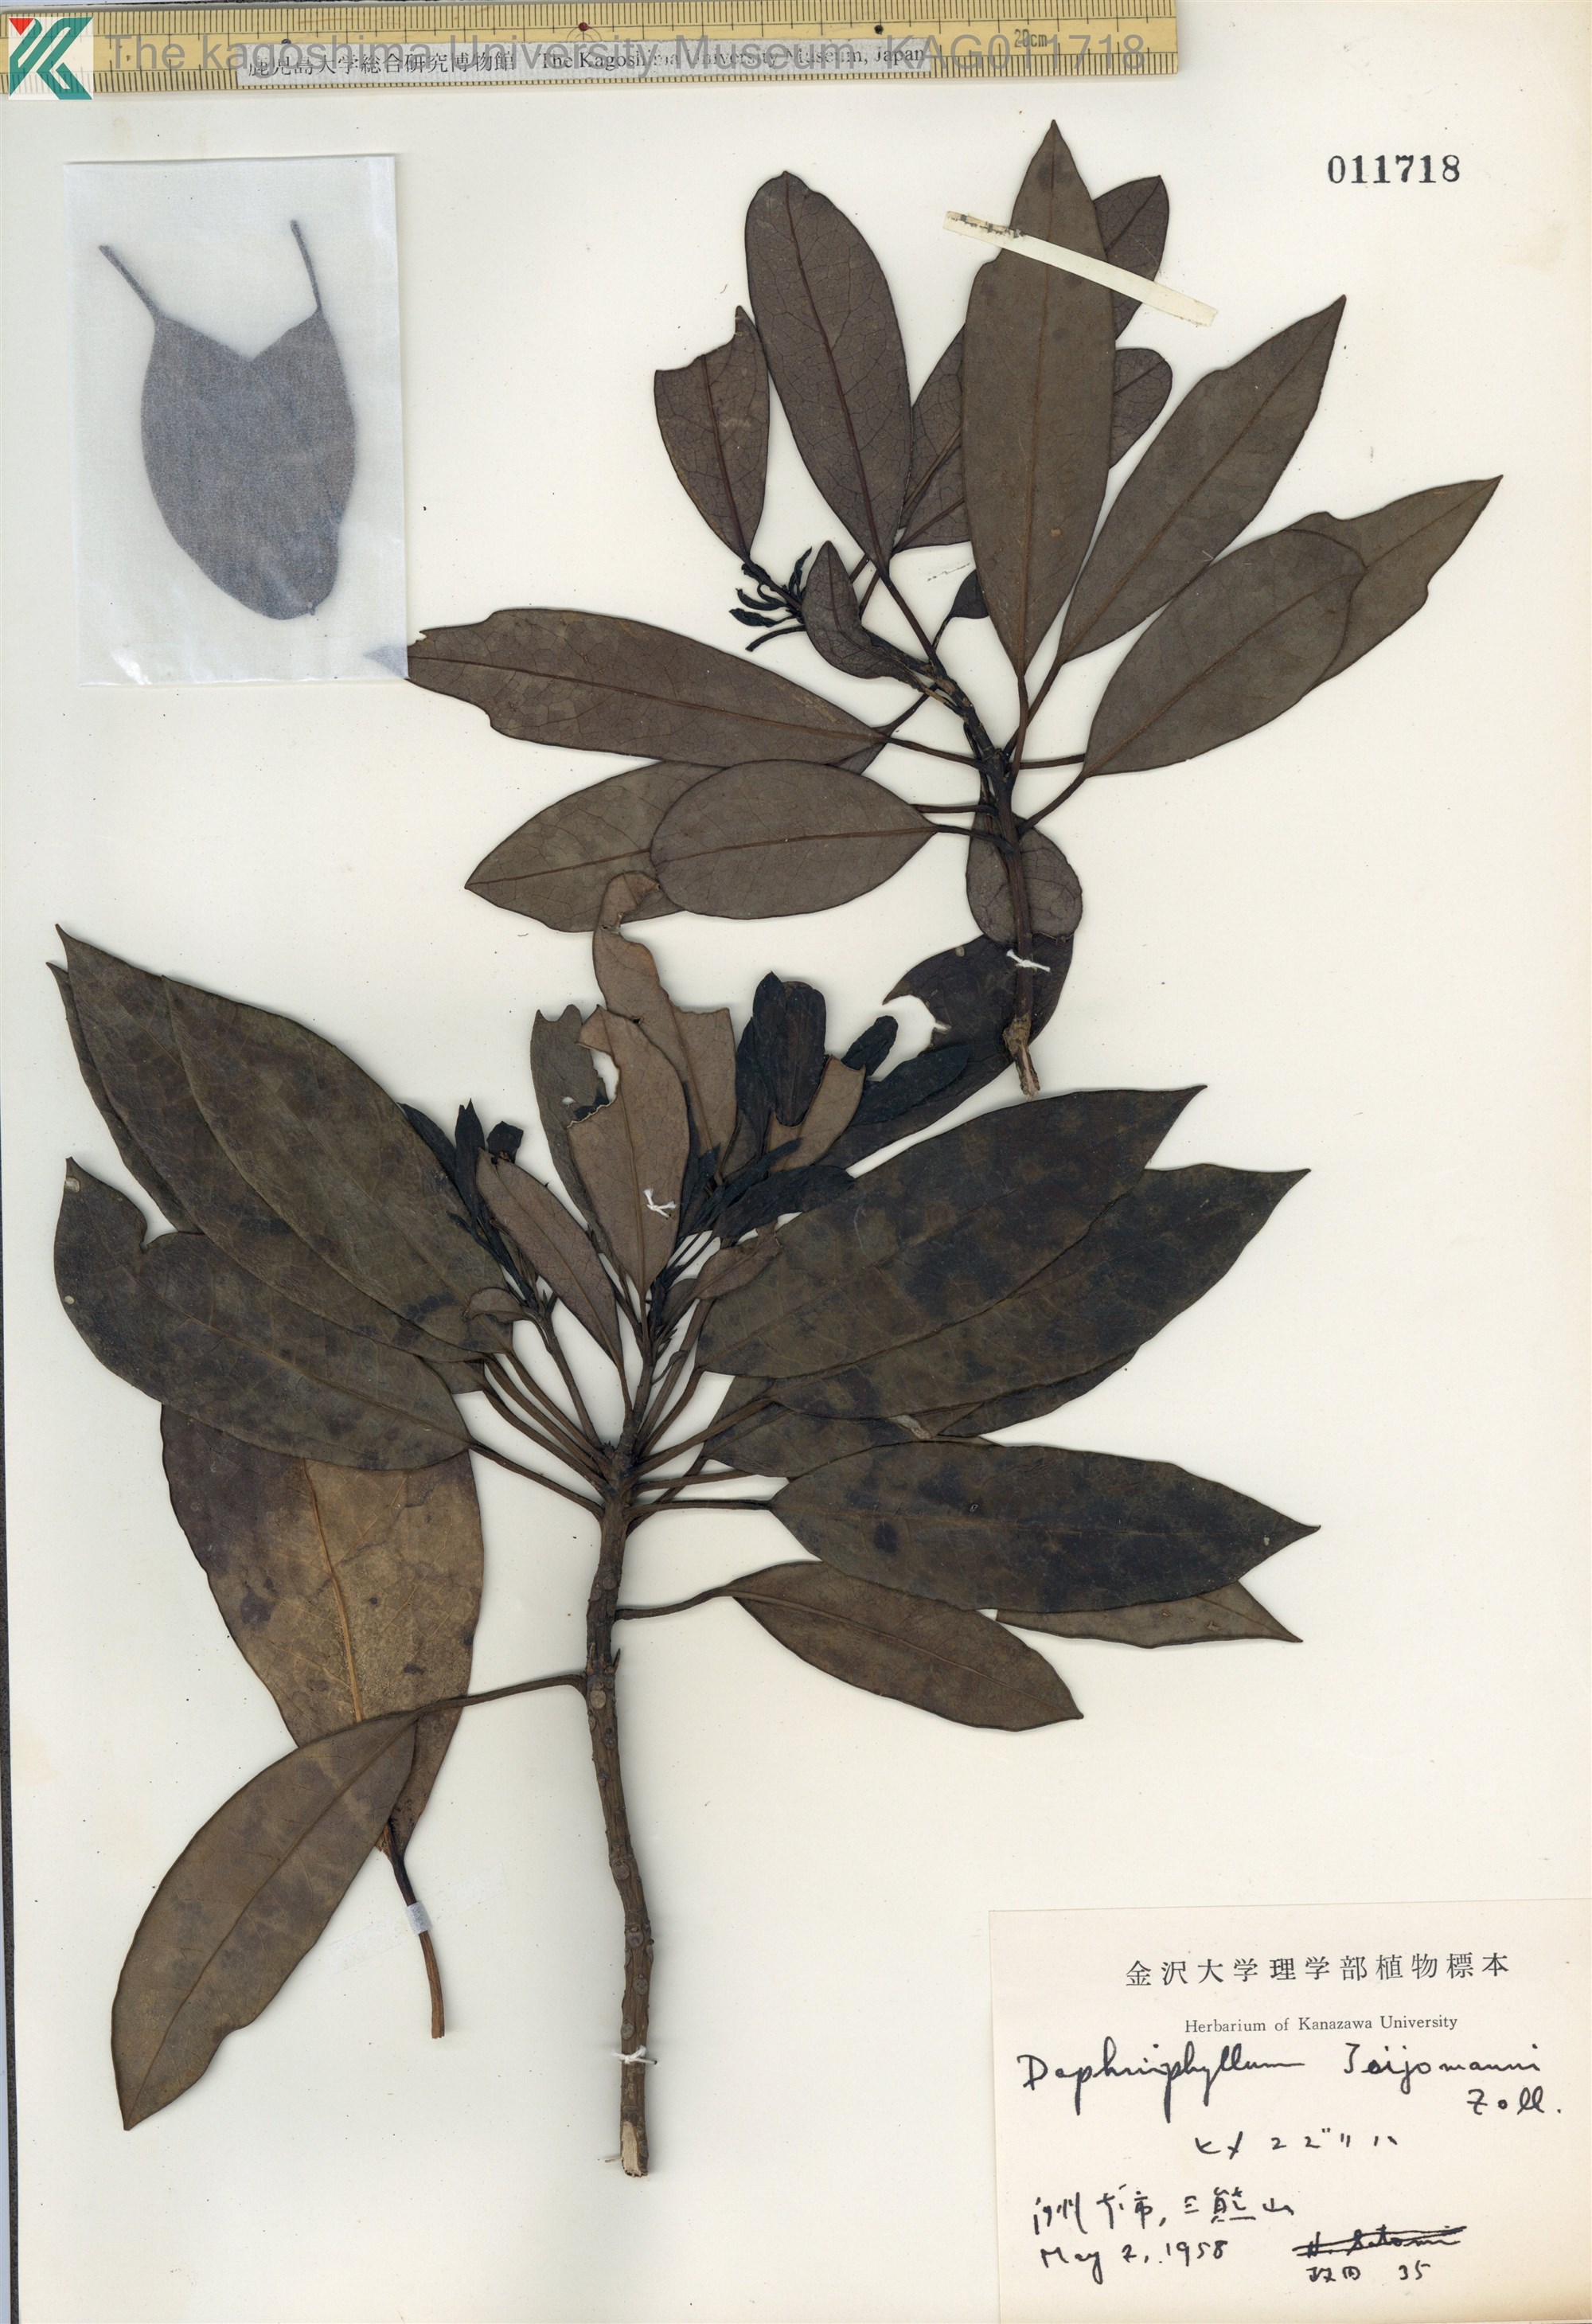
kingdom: Plantae
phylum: Tracheophyta
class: Magnoliopsida
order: Saxifragales
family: Daphniphyllaceae
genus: Daphniphyllum
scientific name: Daphniphyllum teijsmannii
